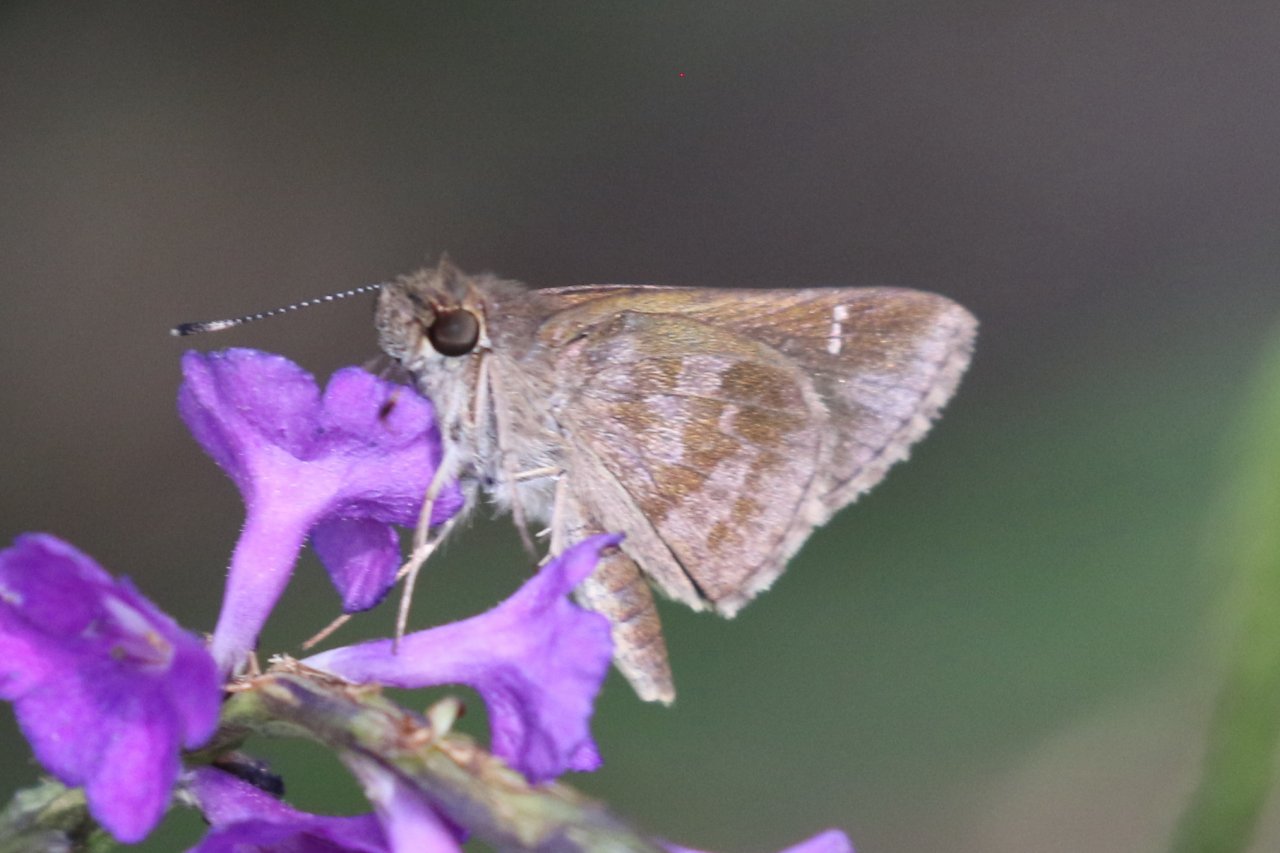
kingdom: Animalia
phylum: Arthropoda
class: Insecta
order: Lepidoptera
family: Hesperiidae
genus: Cymaenes
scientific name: Cymaenes odilia
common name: Fawn-spotted Skipper
